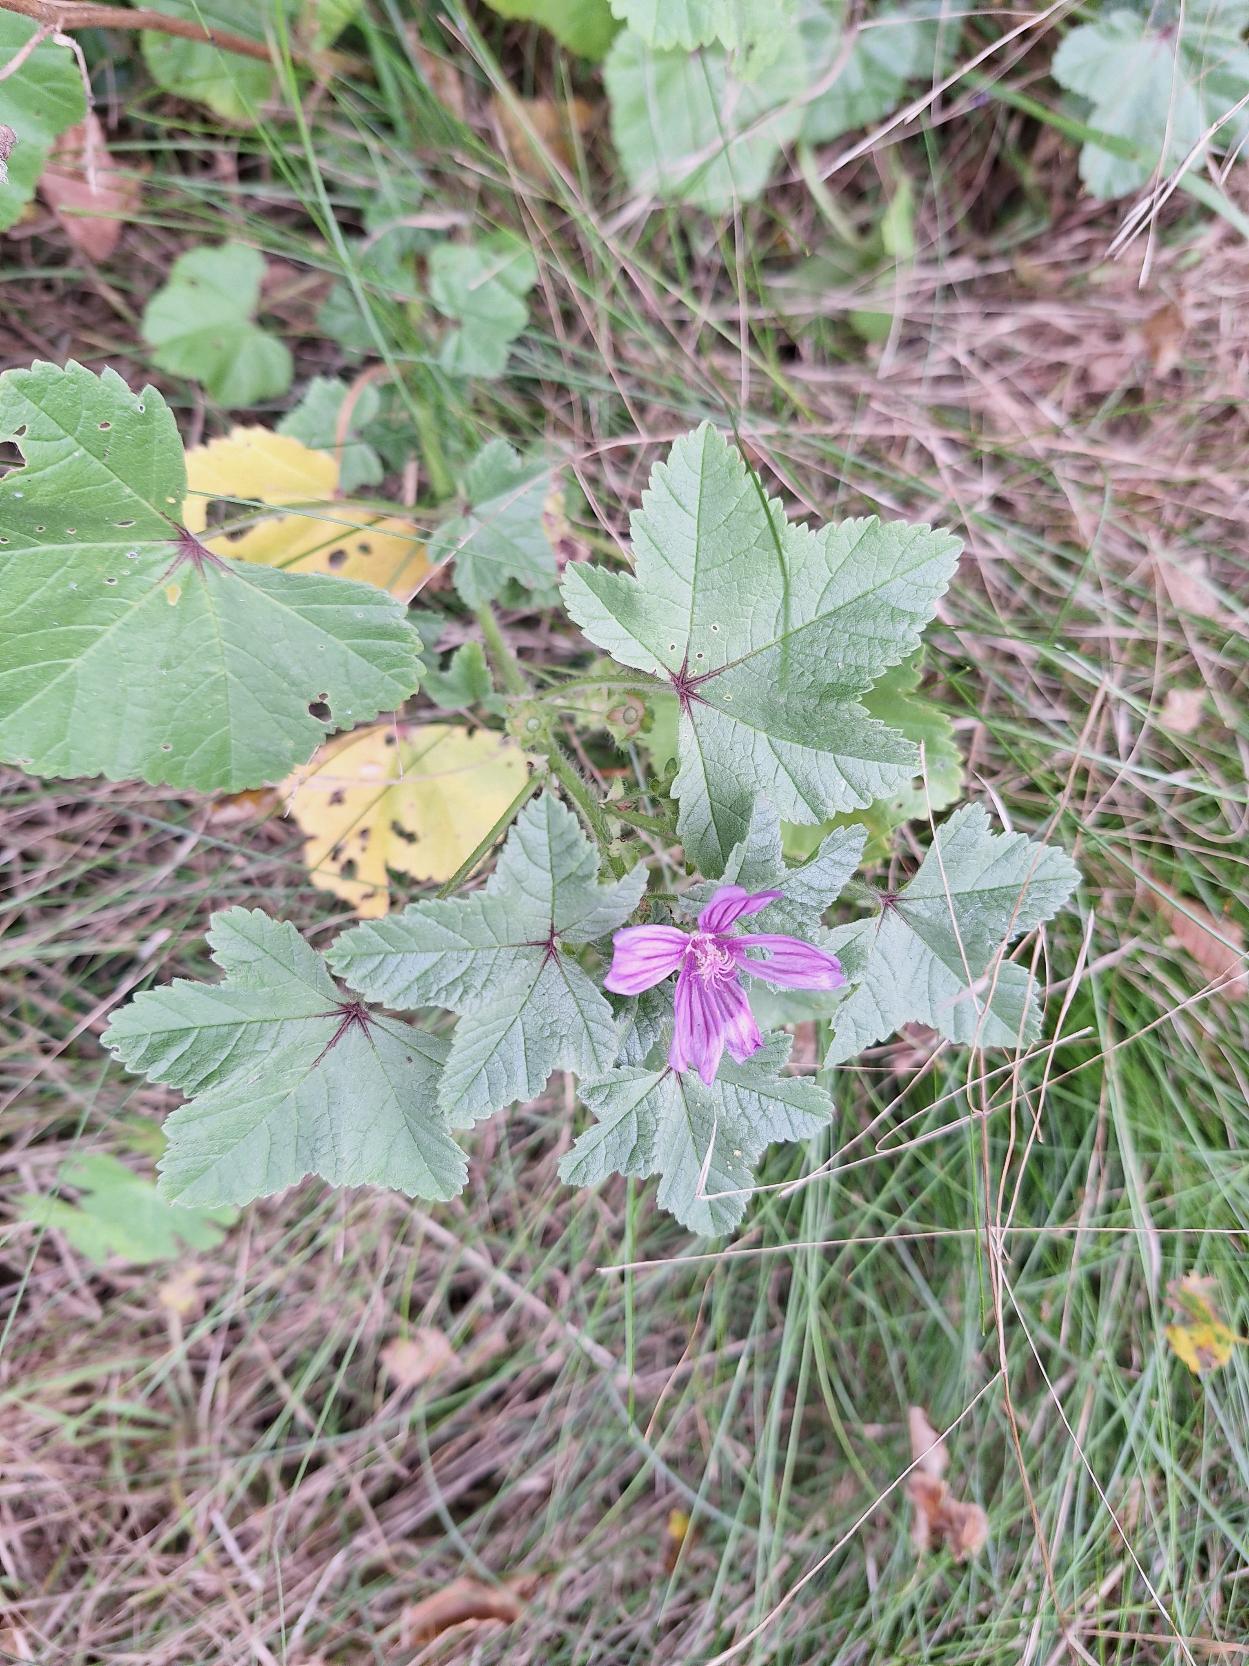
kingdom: Plantae
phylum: Tracheophyta
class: Magnoliopsida
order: Malvales
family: Malvaceae
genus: Malva
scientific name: Malva sylvestris
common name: Almindelig katost
